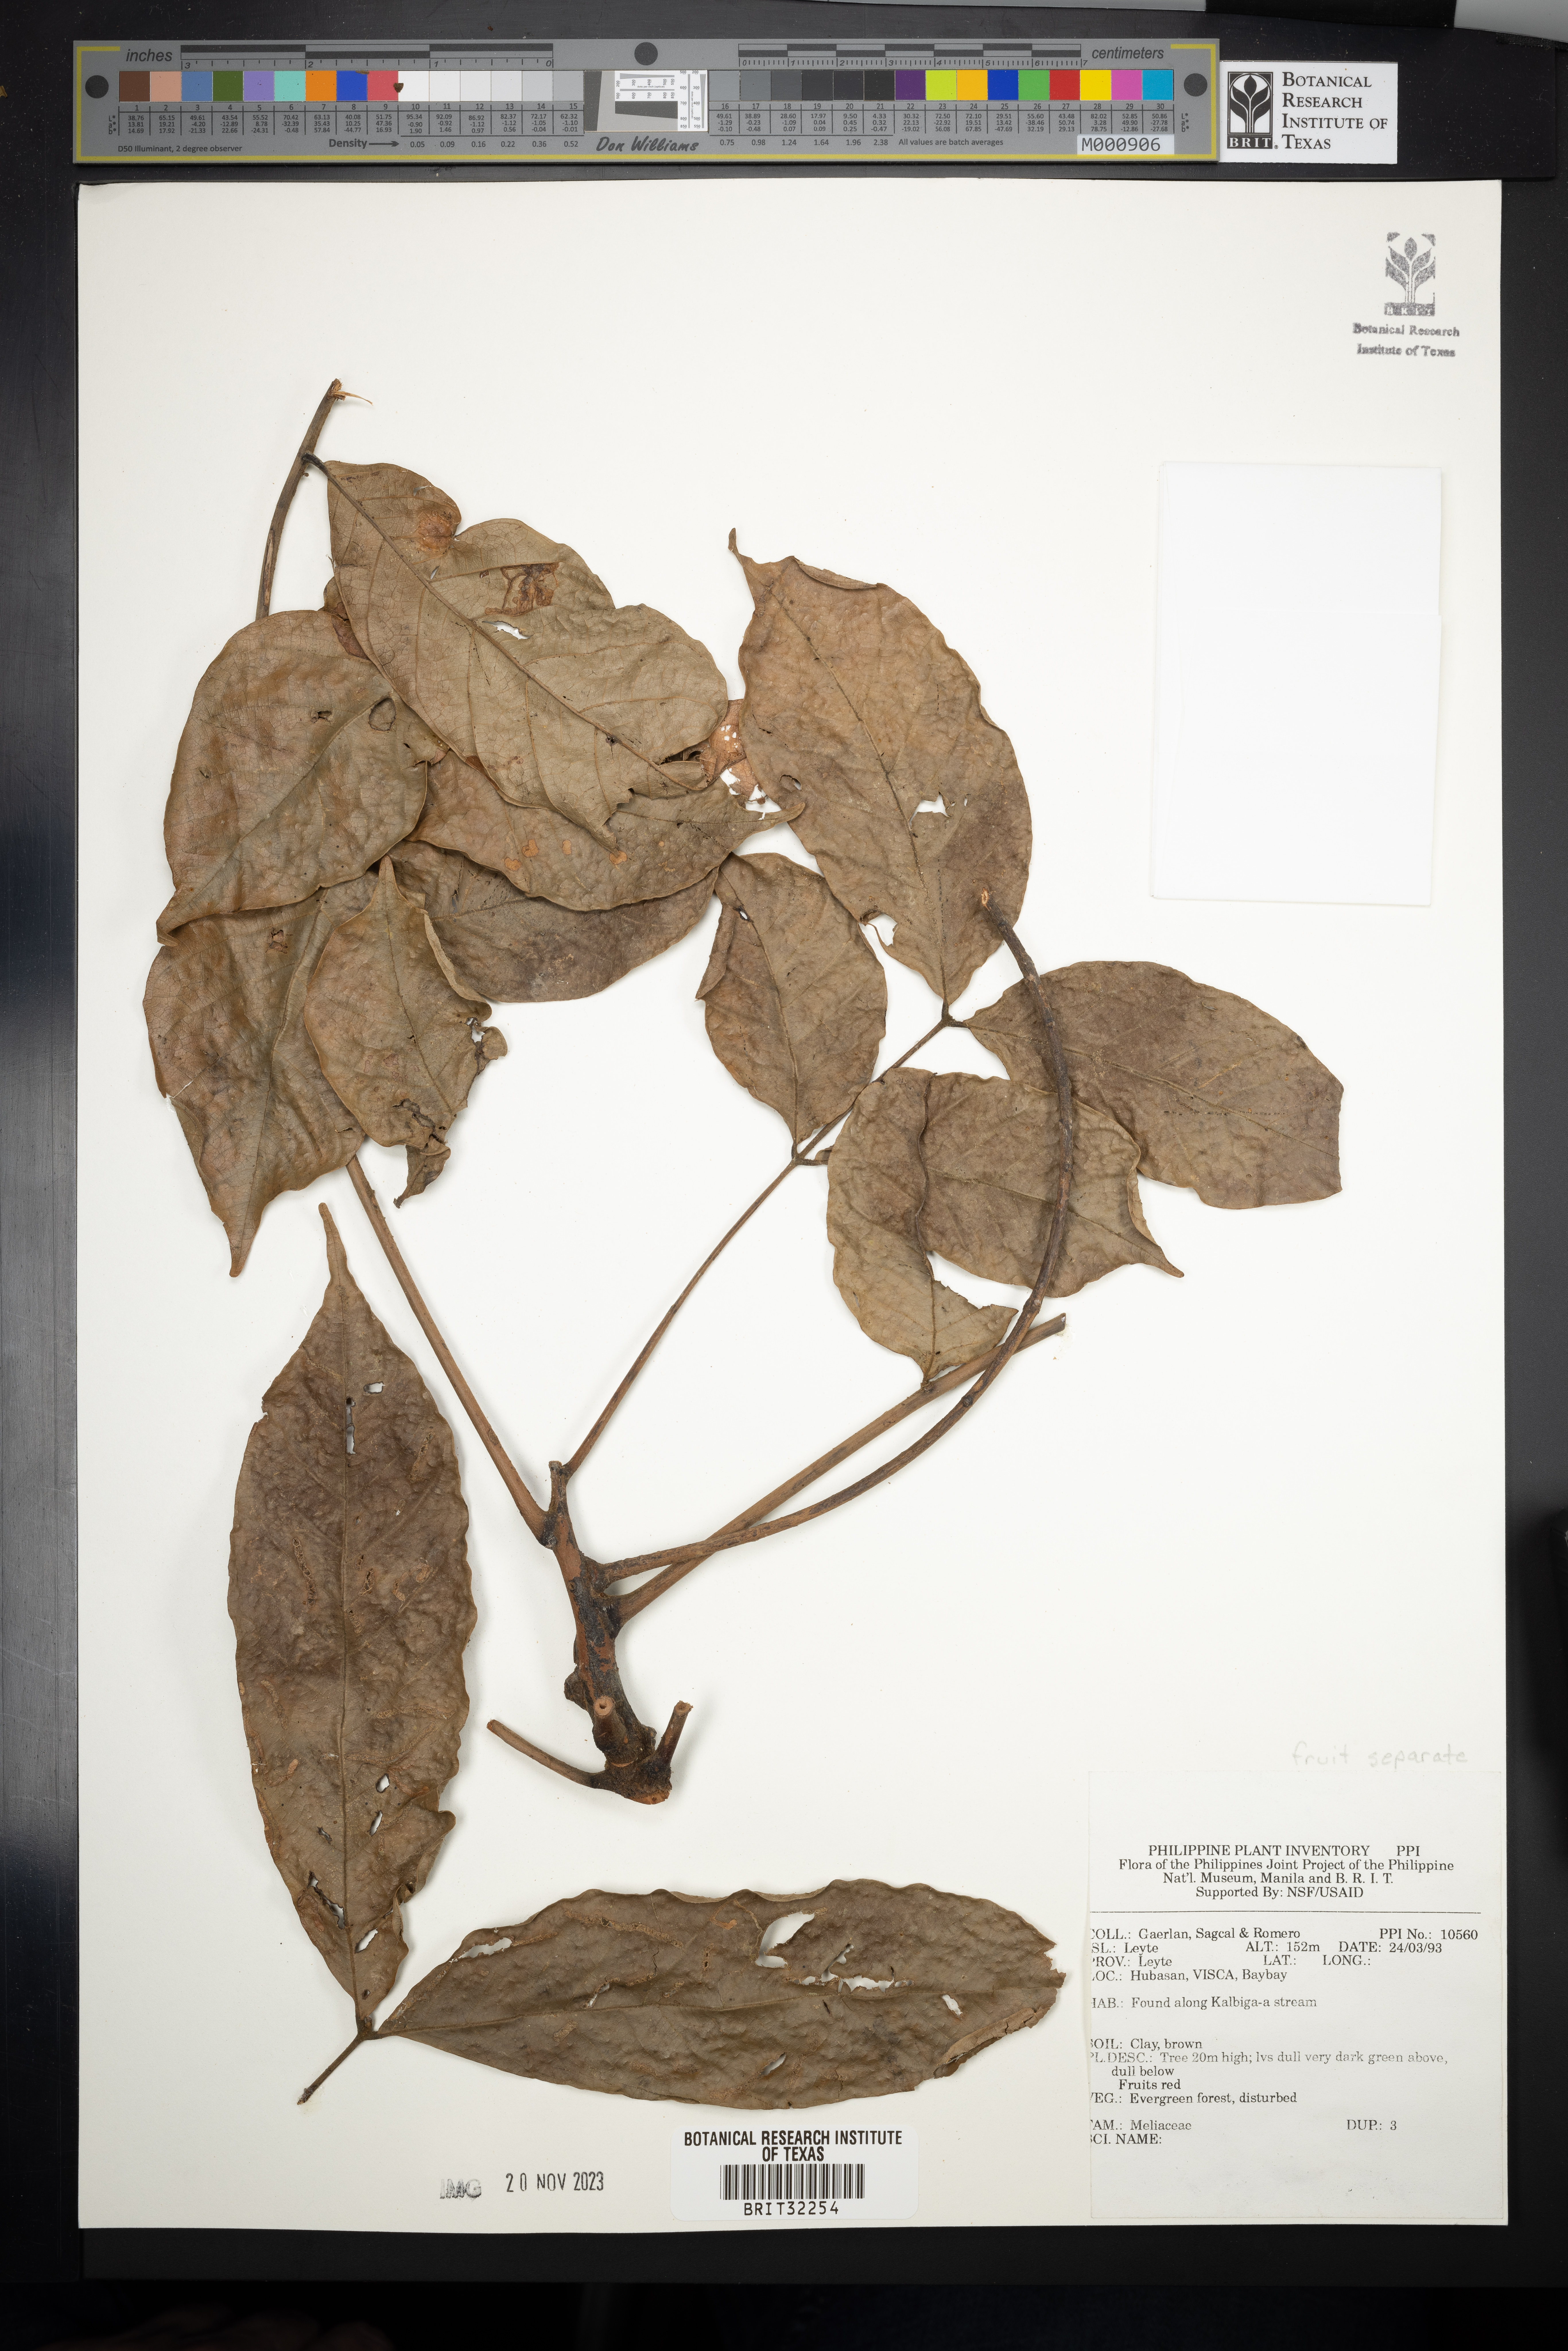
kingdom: Plantae
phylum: Tracheophyta
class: Magnoliopsida
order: Sapindales
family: Meliaceae
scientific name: Meliaceae
